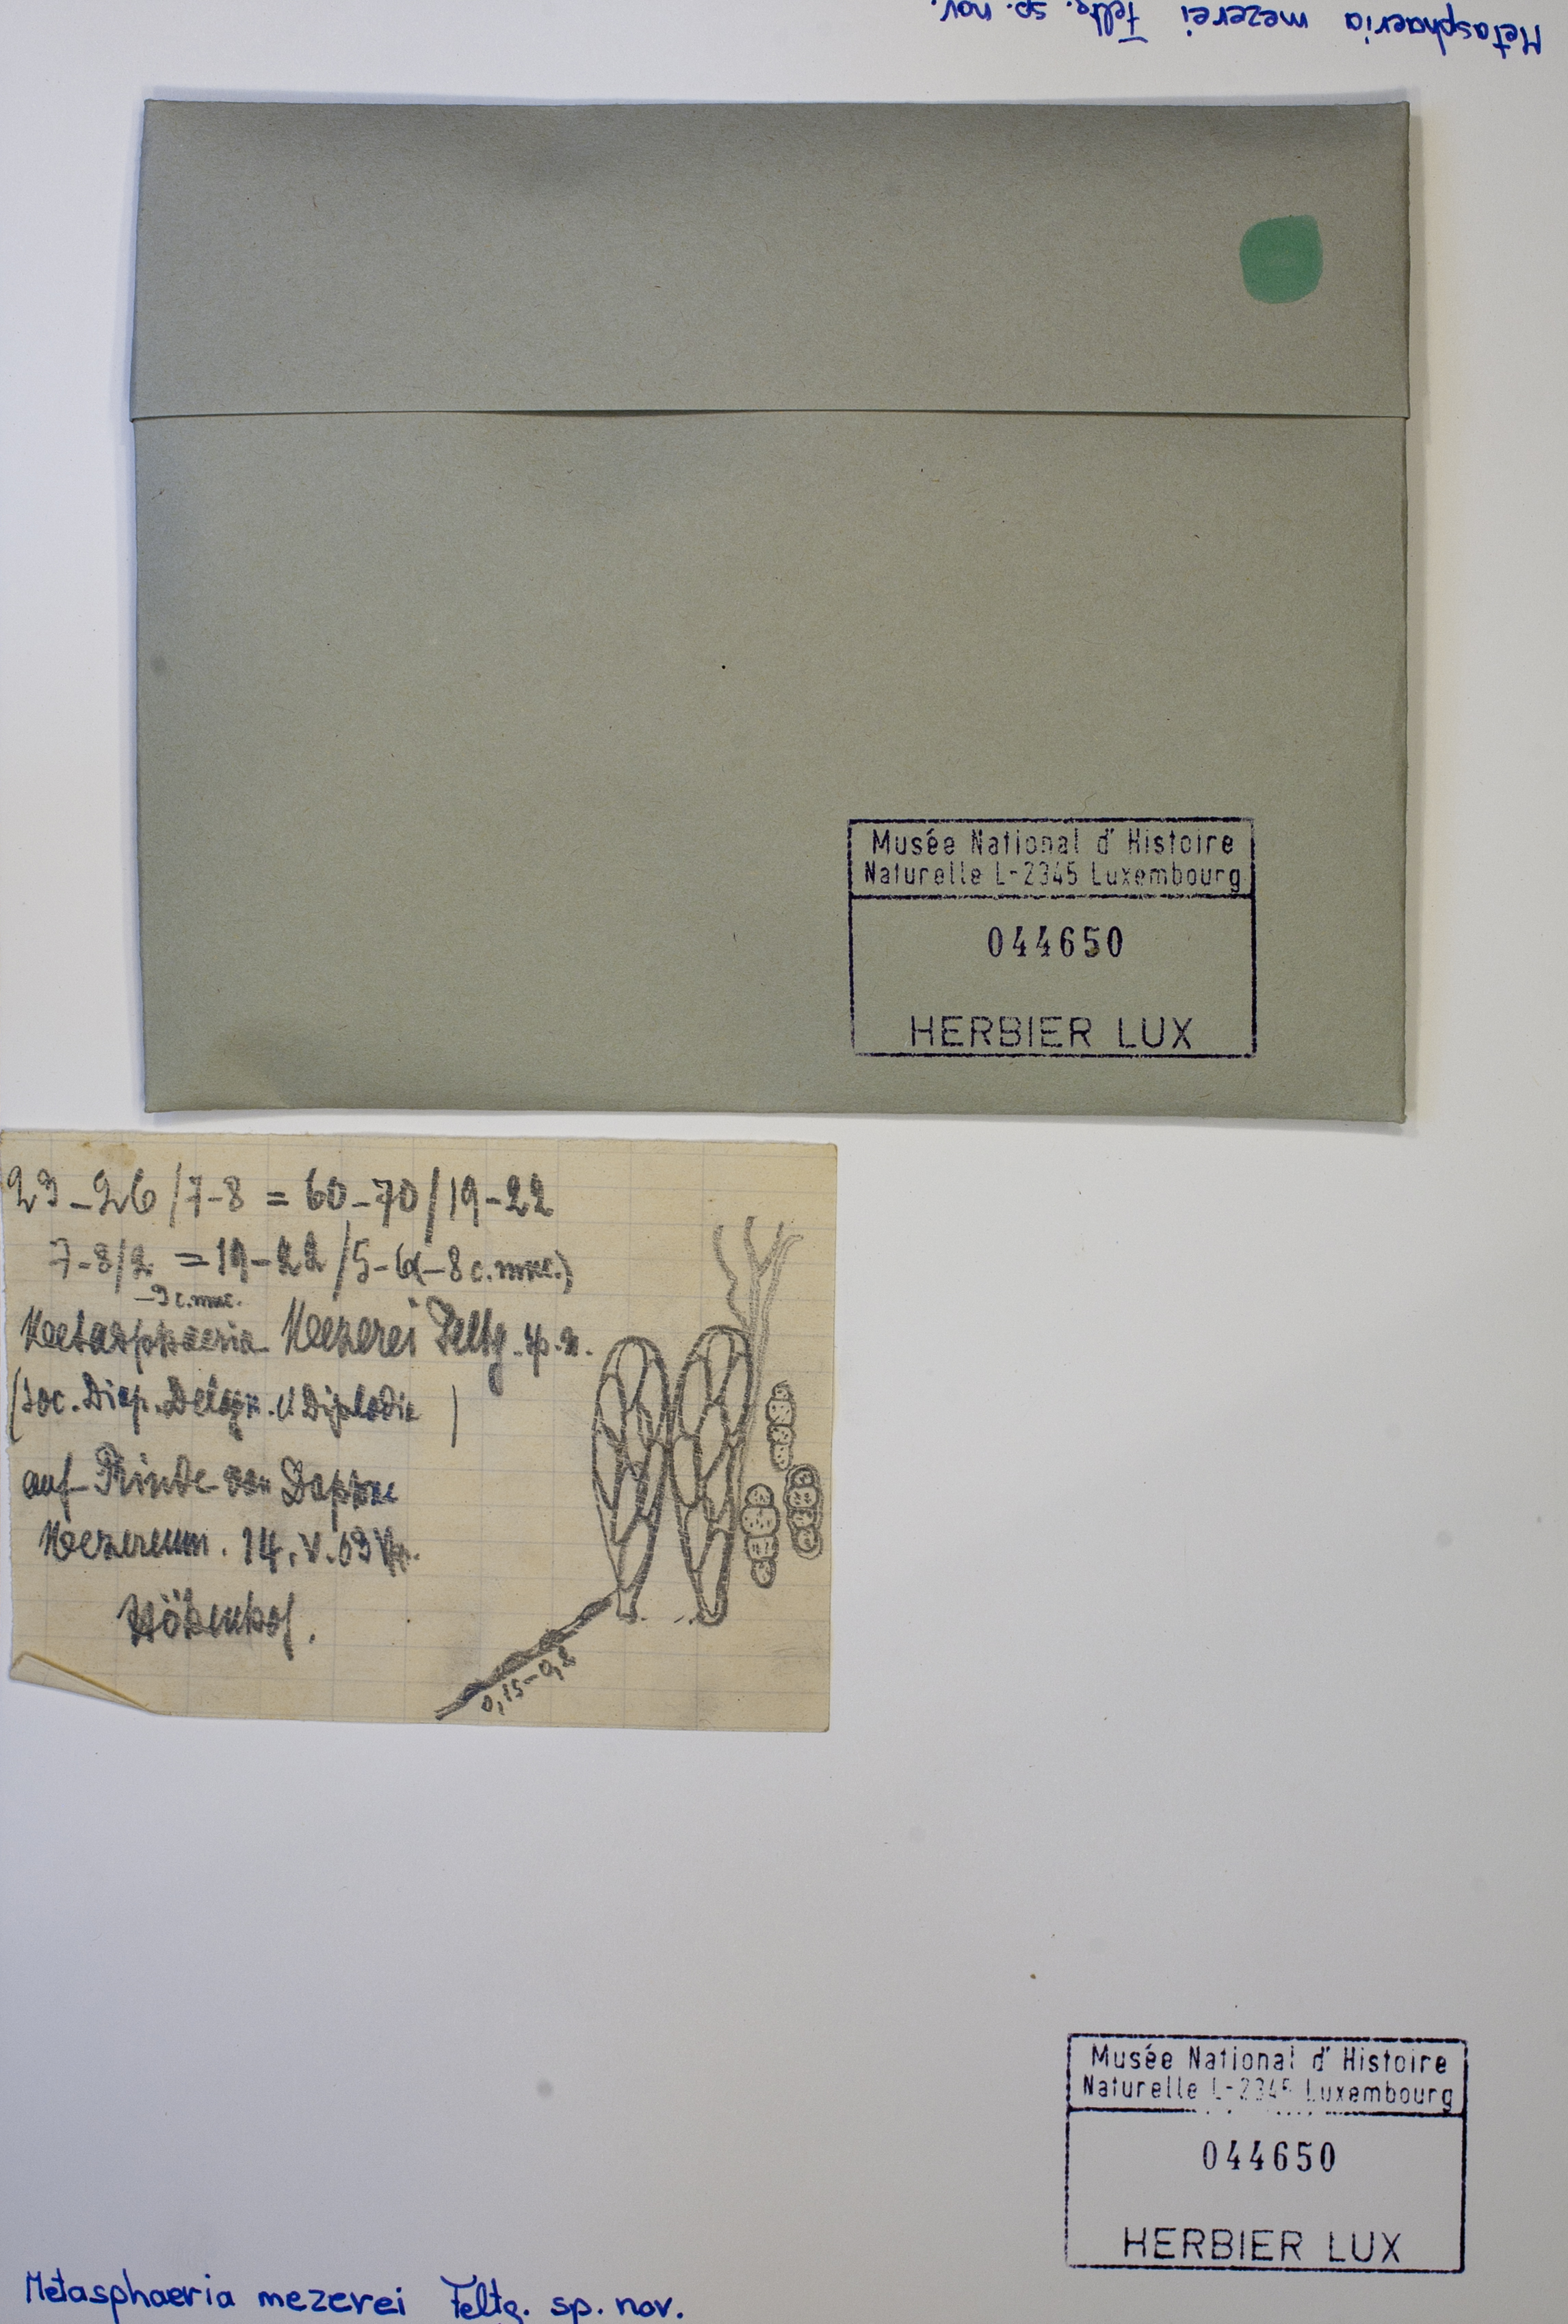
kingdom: Fungi
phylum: Ascomycota
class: Dothideomycetes
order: Dothideales
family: Saccotheciaceae
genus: Metasphaeria
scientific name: Metasphaeria mezerei
